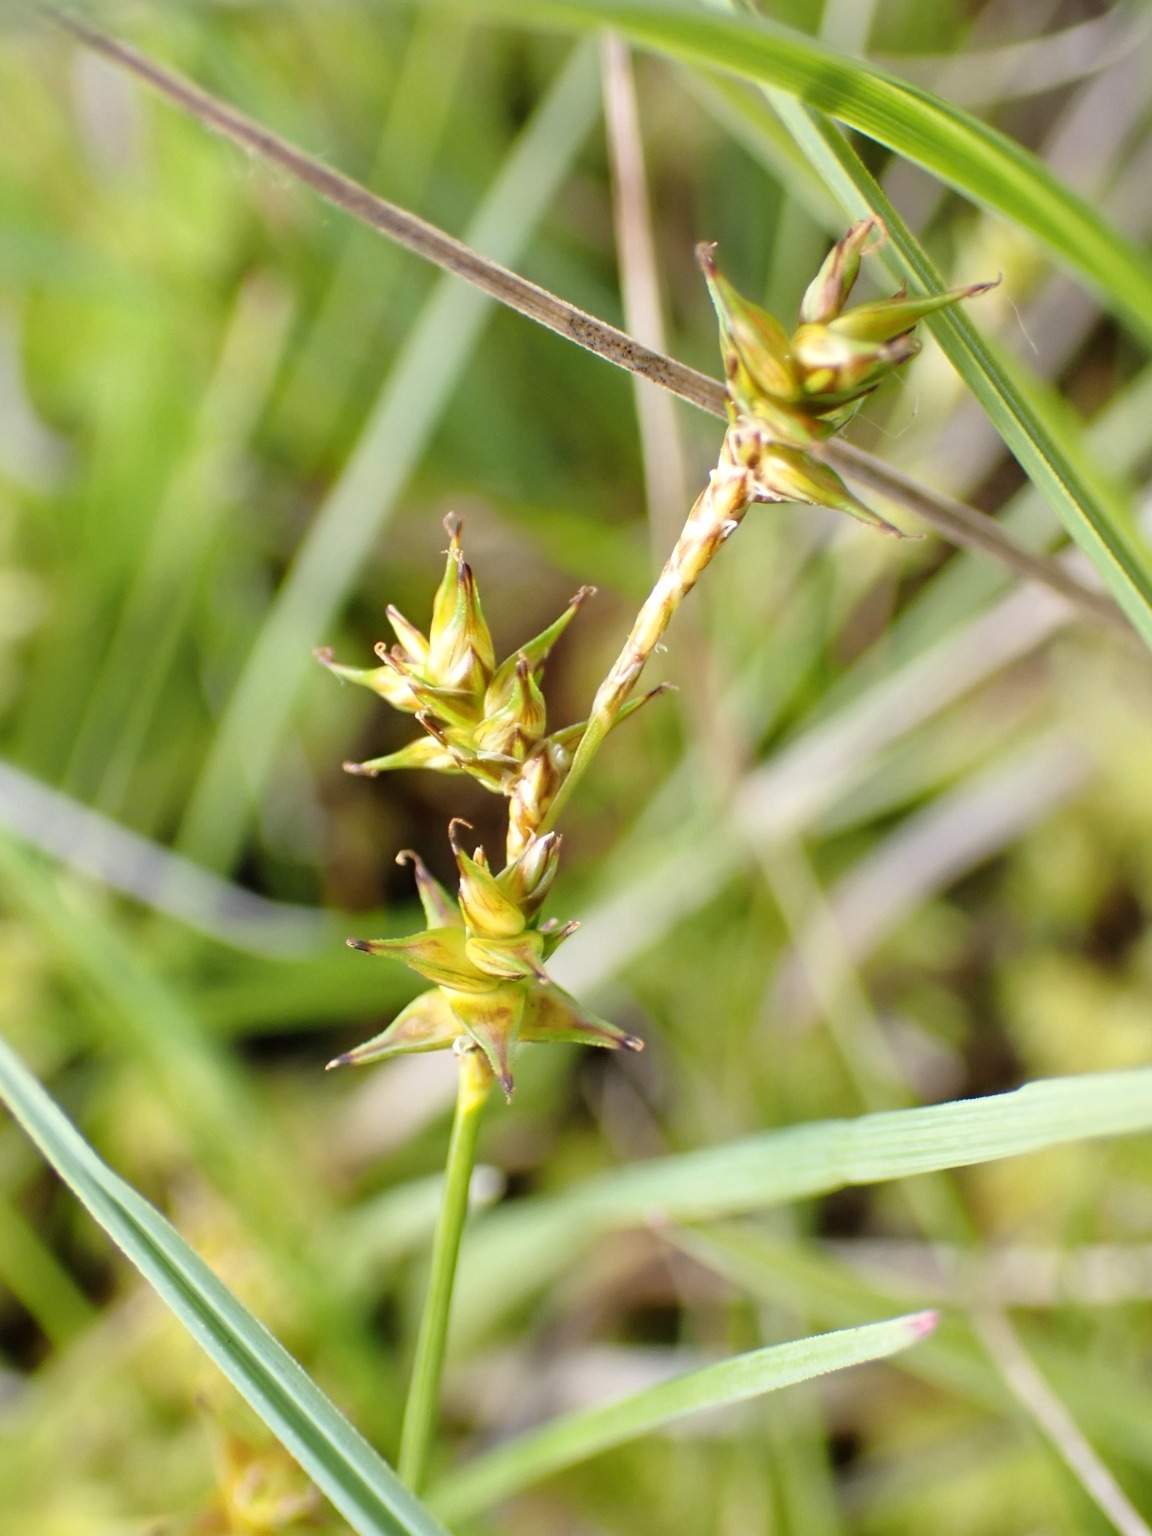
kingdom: Plantae
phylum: Tracheophyta
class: Liliopsida
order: Poales
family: Cyperaceae
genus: Carex
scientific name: Carex echinata
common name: Stjerne-star
